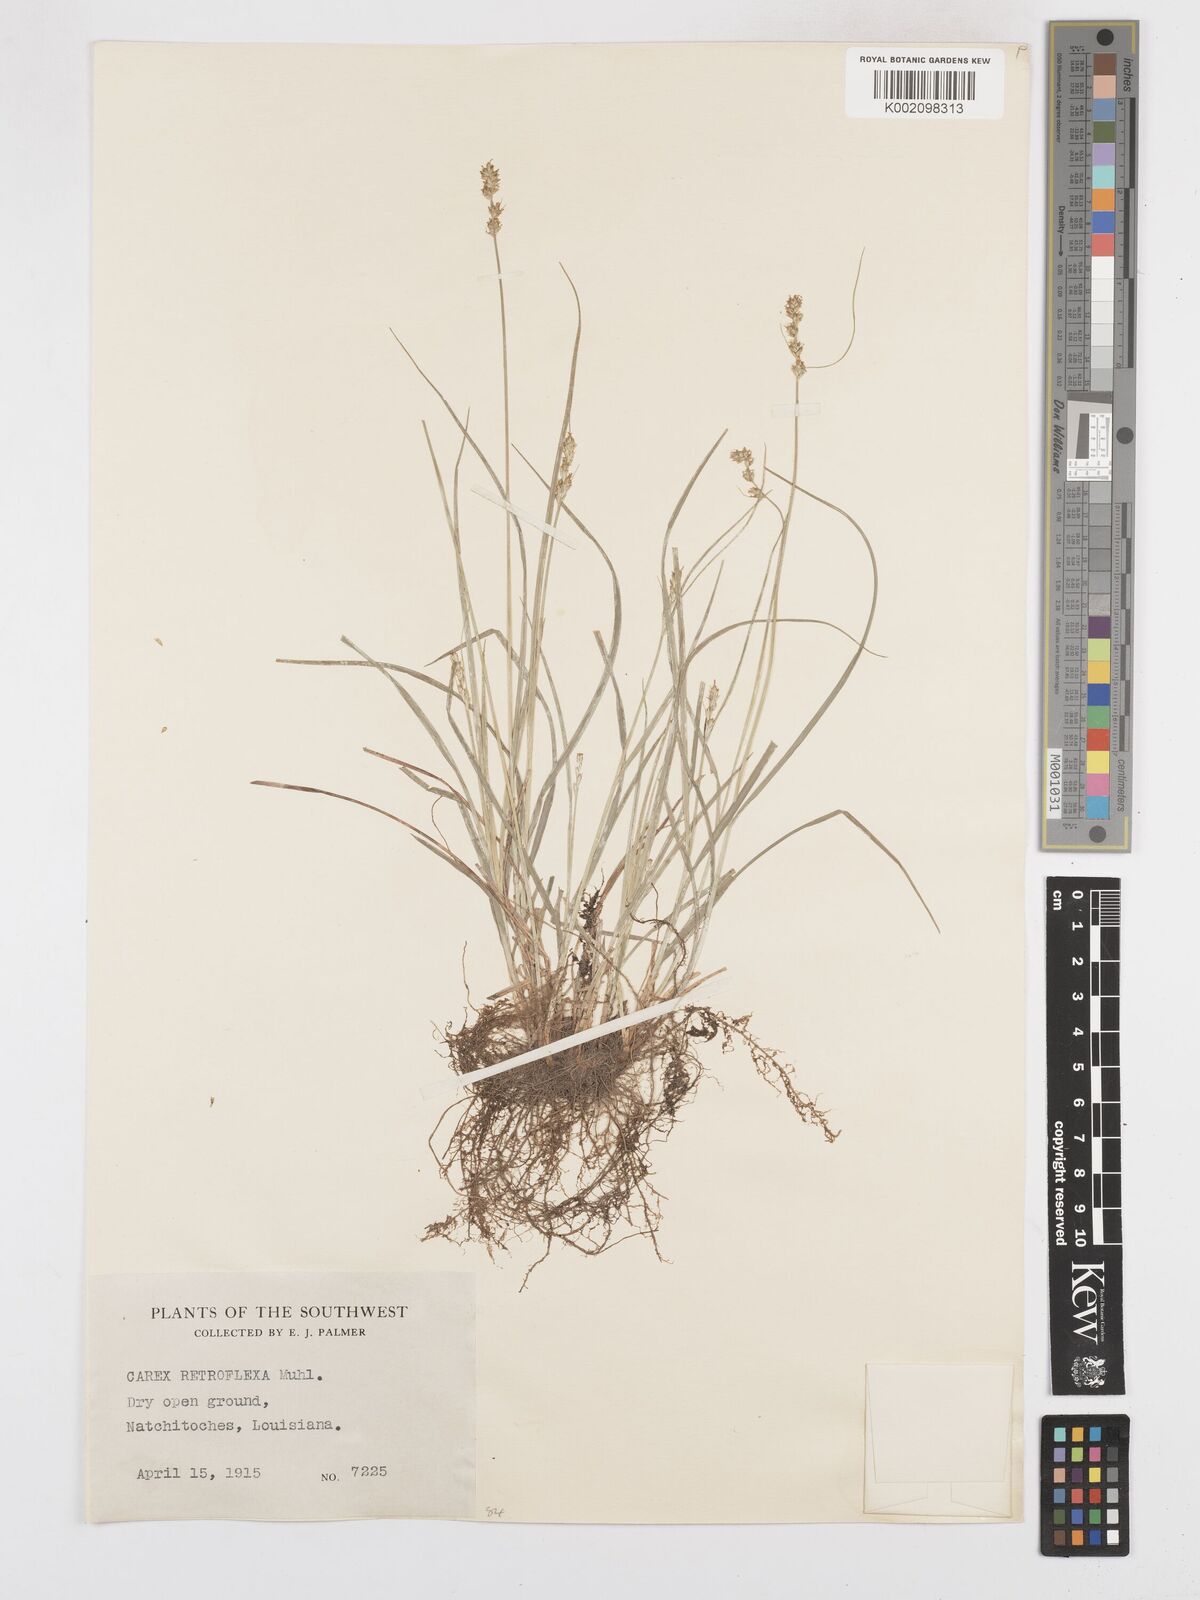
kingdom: Plantae
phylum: Tracheophyta
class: Liliopsida
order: Poales
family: Cyperaceae
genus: Carex
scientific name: Carex retroflexa
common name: Reflexed sedge
